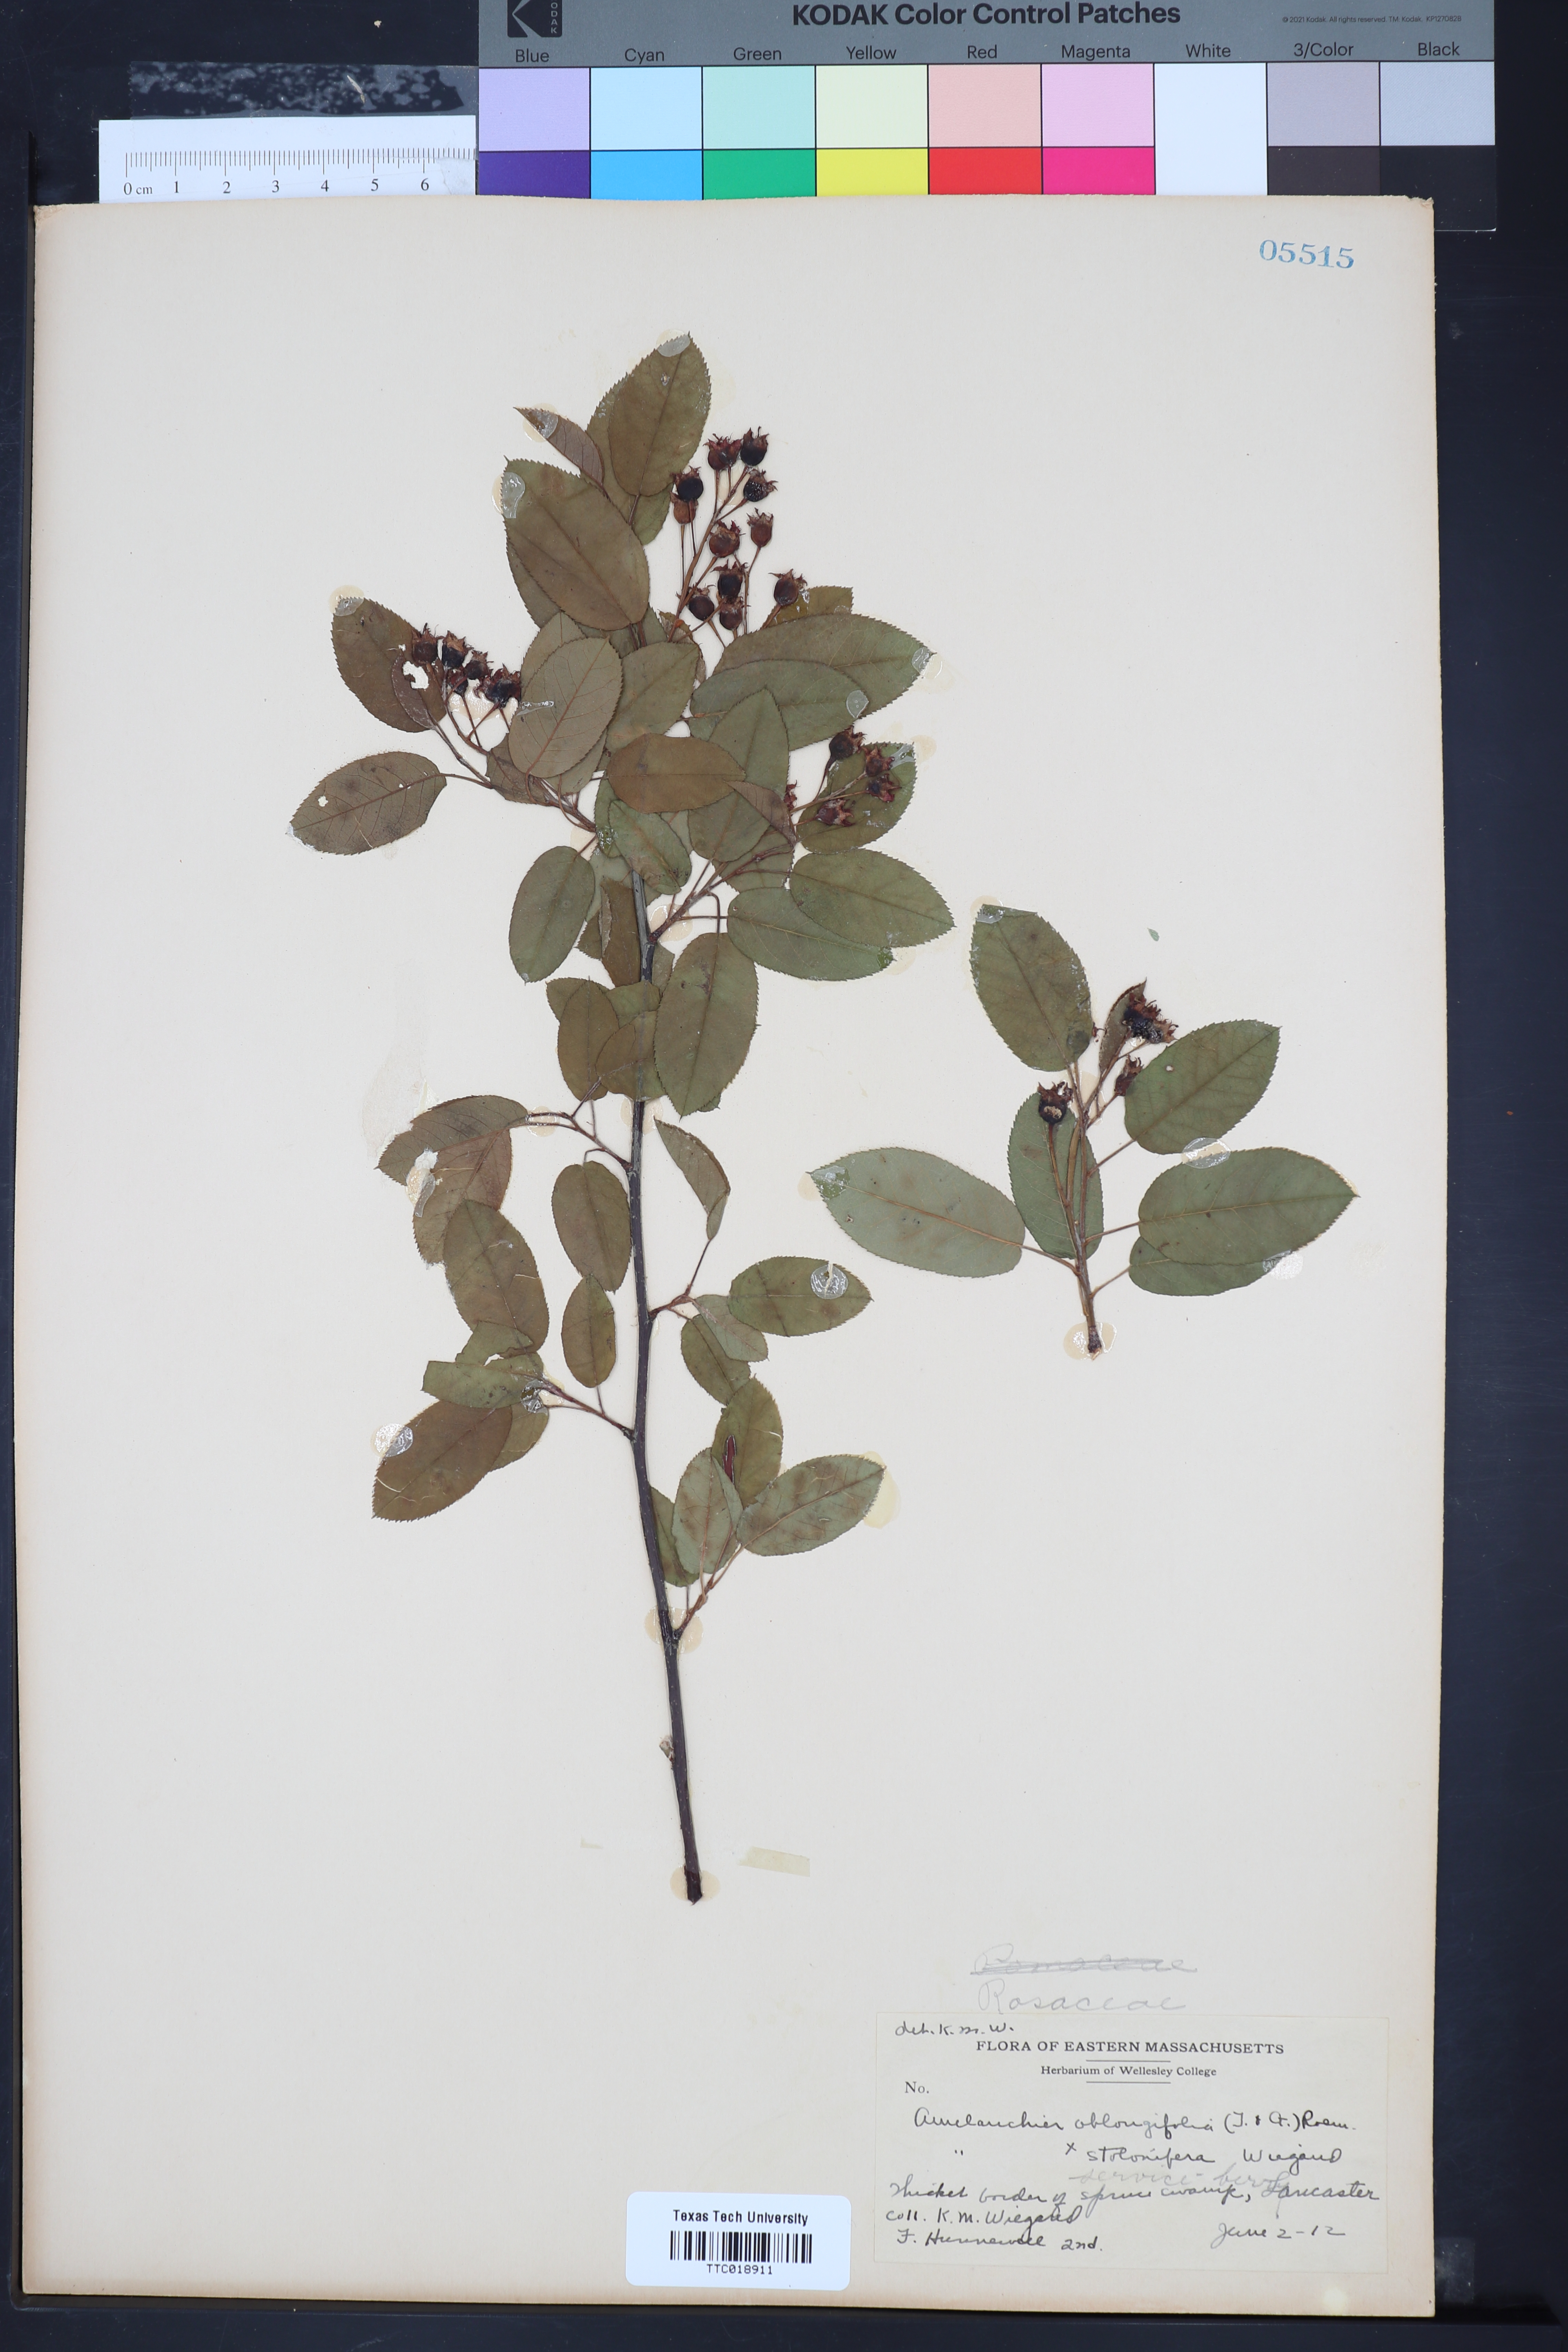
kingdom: Plantae
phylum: Tracheophyta
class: Magnoliopsida
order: Rosales
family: Rosaceae
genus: Amelanchier
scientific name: Amelanchier
